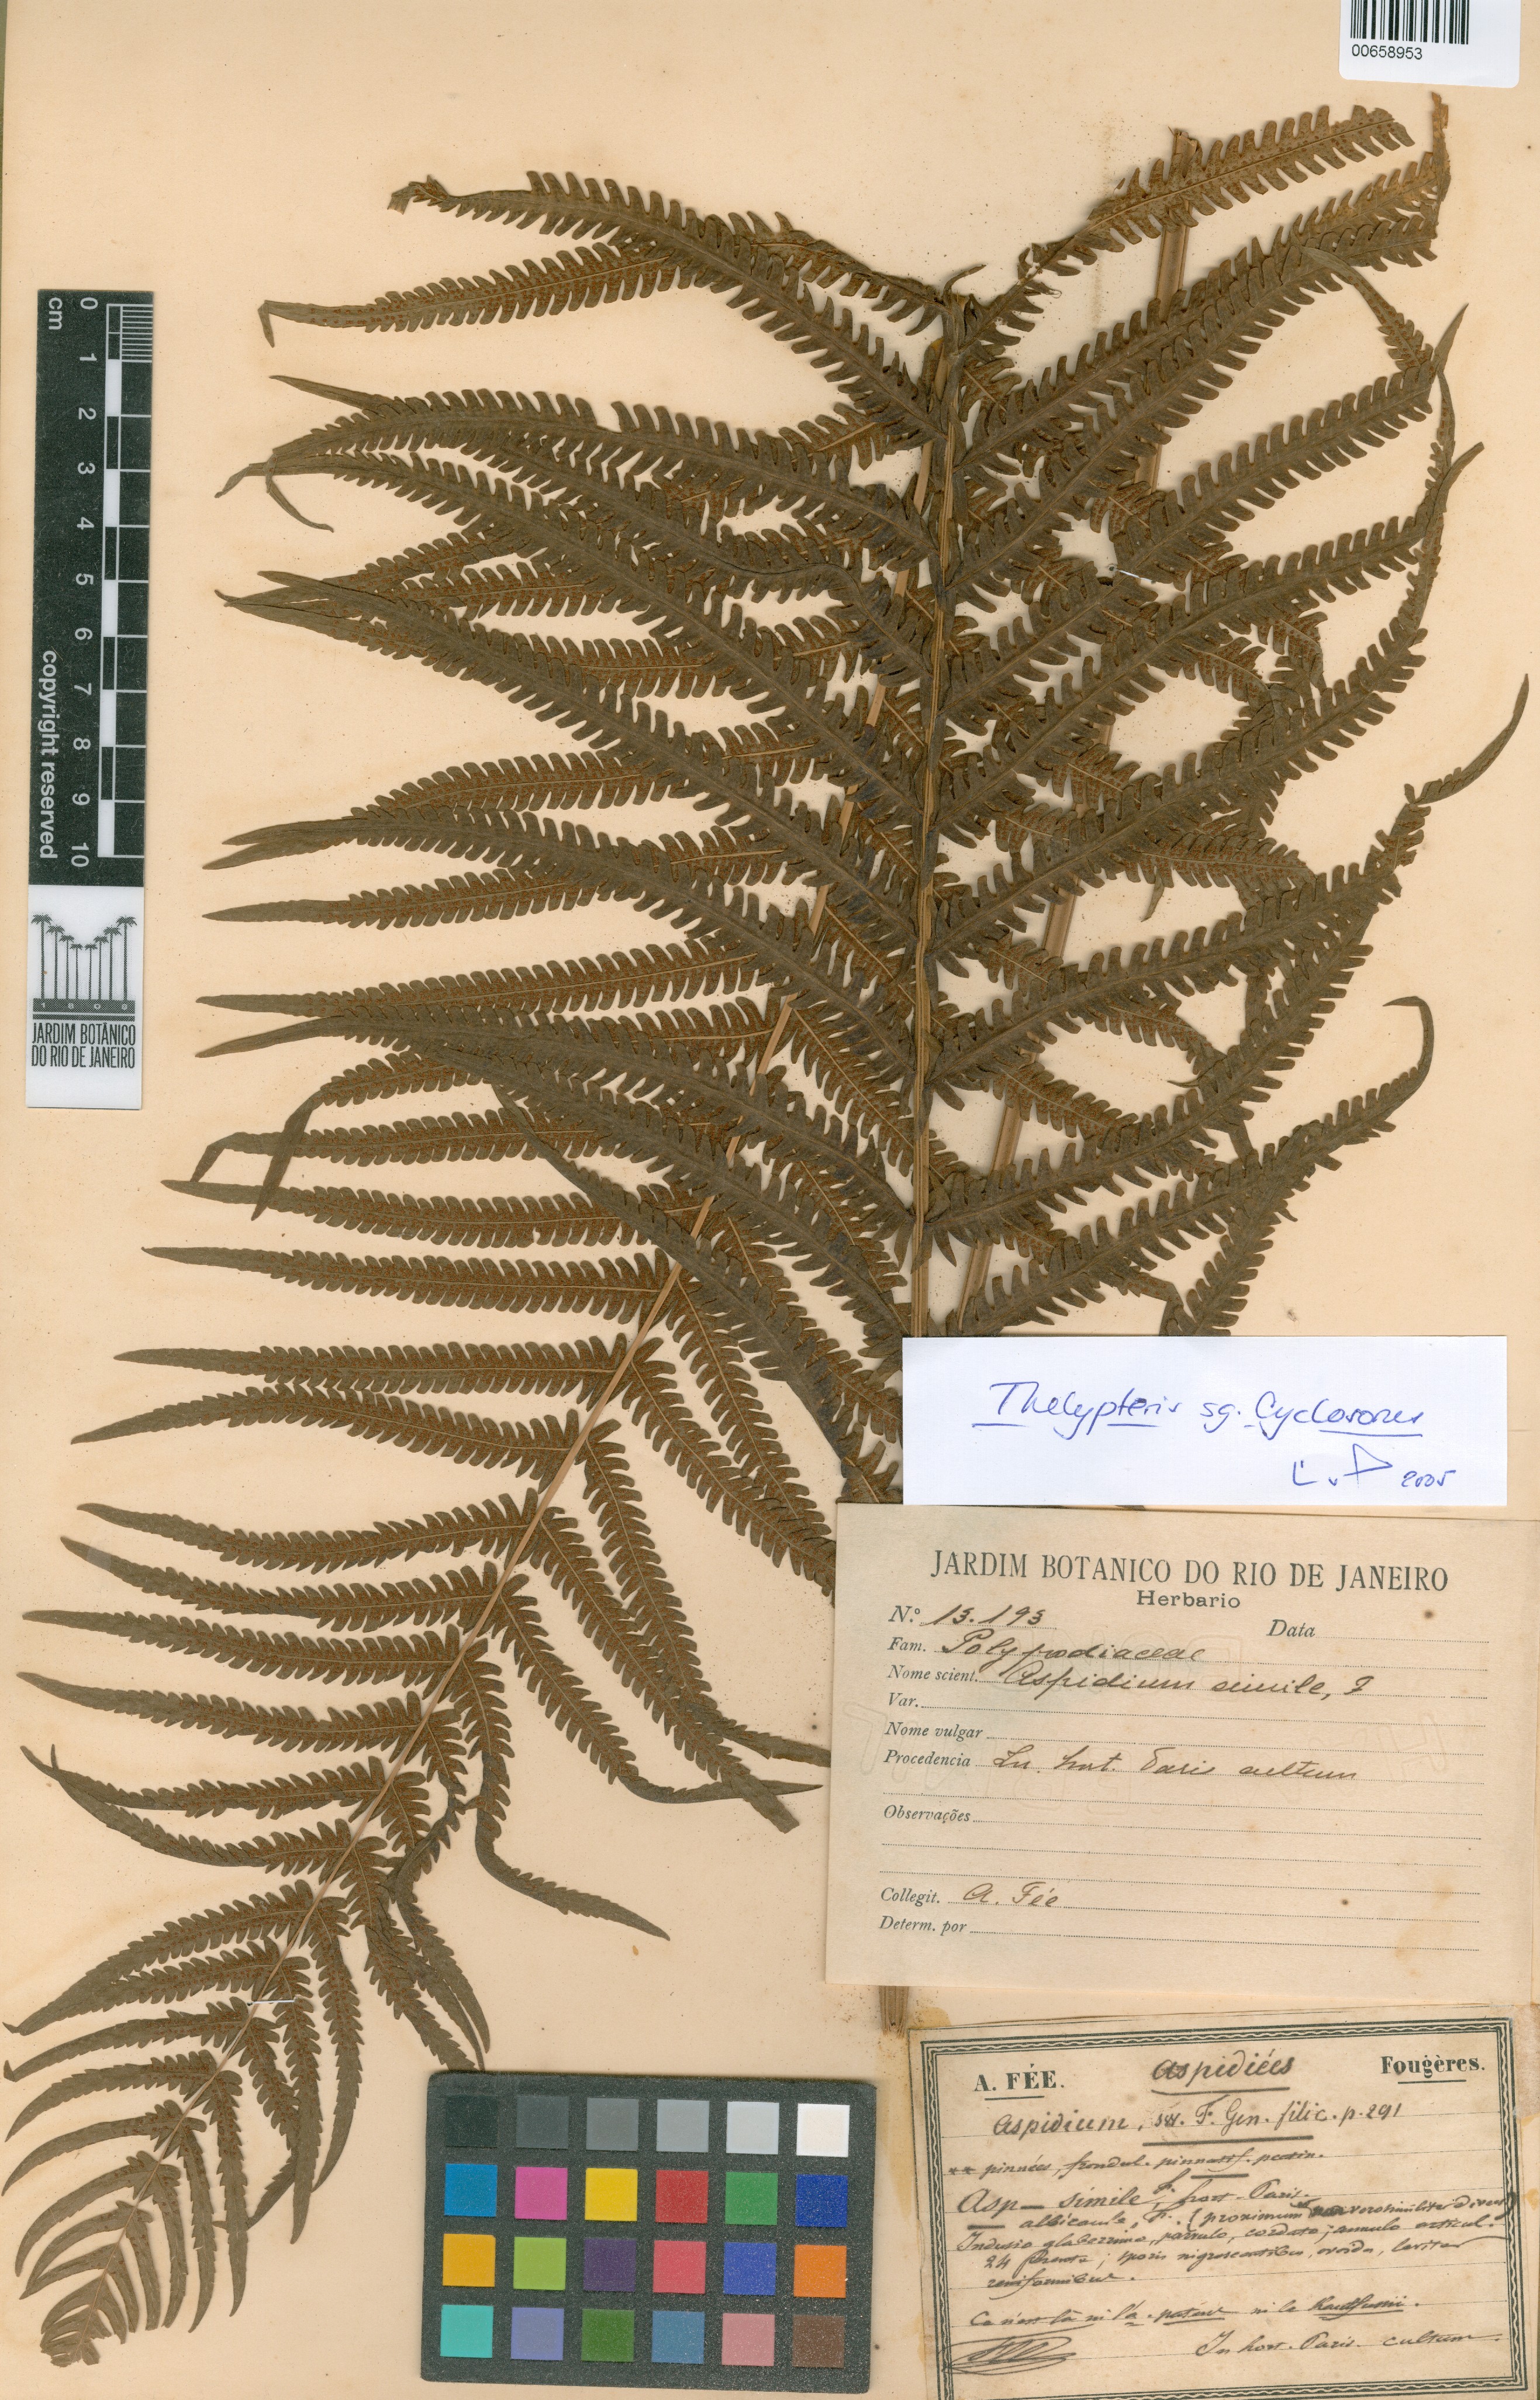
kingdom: Plantae
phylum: Tracheophyta
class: Polypodiopsida
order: Polypodiales
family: Thelypteridaceae
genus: Christella
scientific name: Christella
